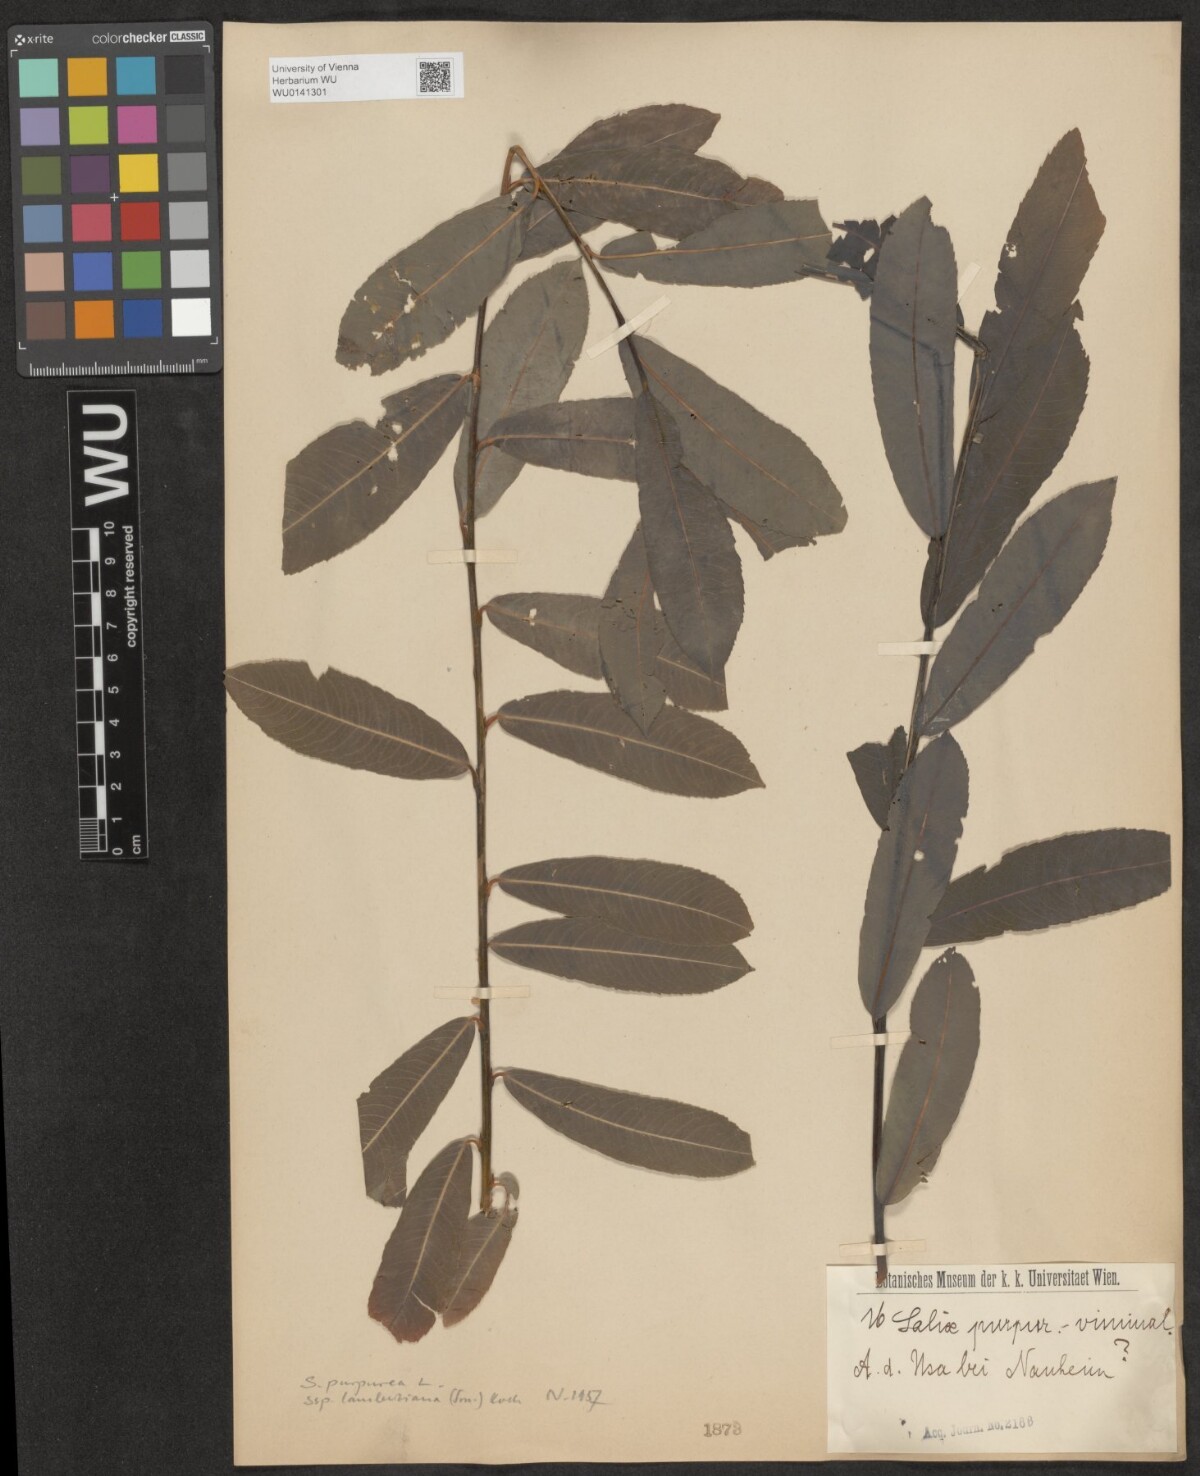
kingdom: Plantae
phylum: Tracheophyta
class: Magnoliopsida
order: Malpighiales
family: Salicaceae
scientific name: Salicaceae
